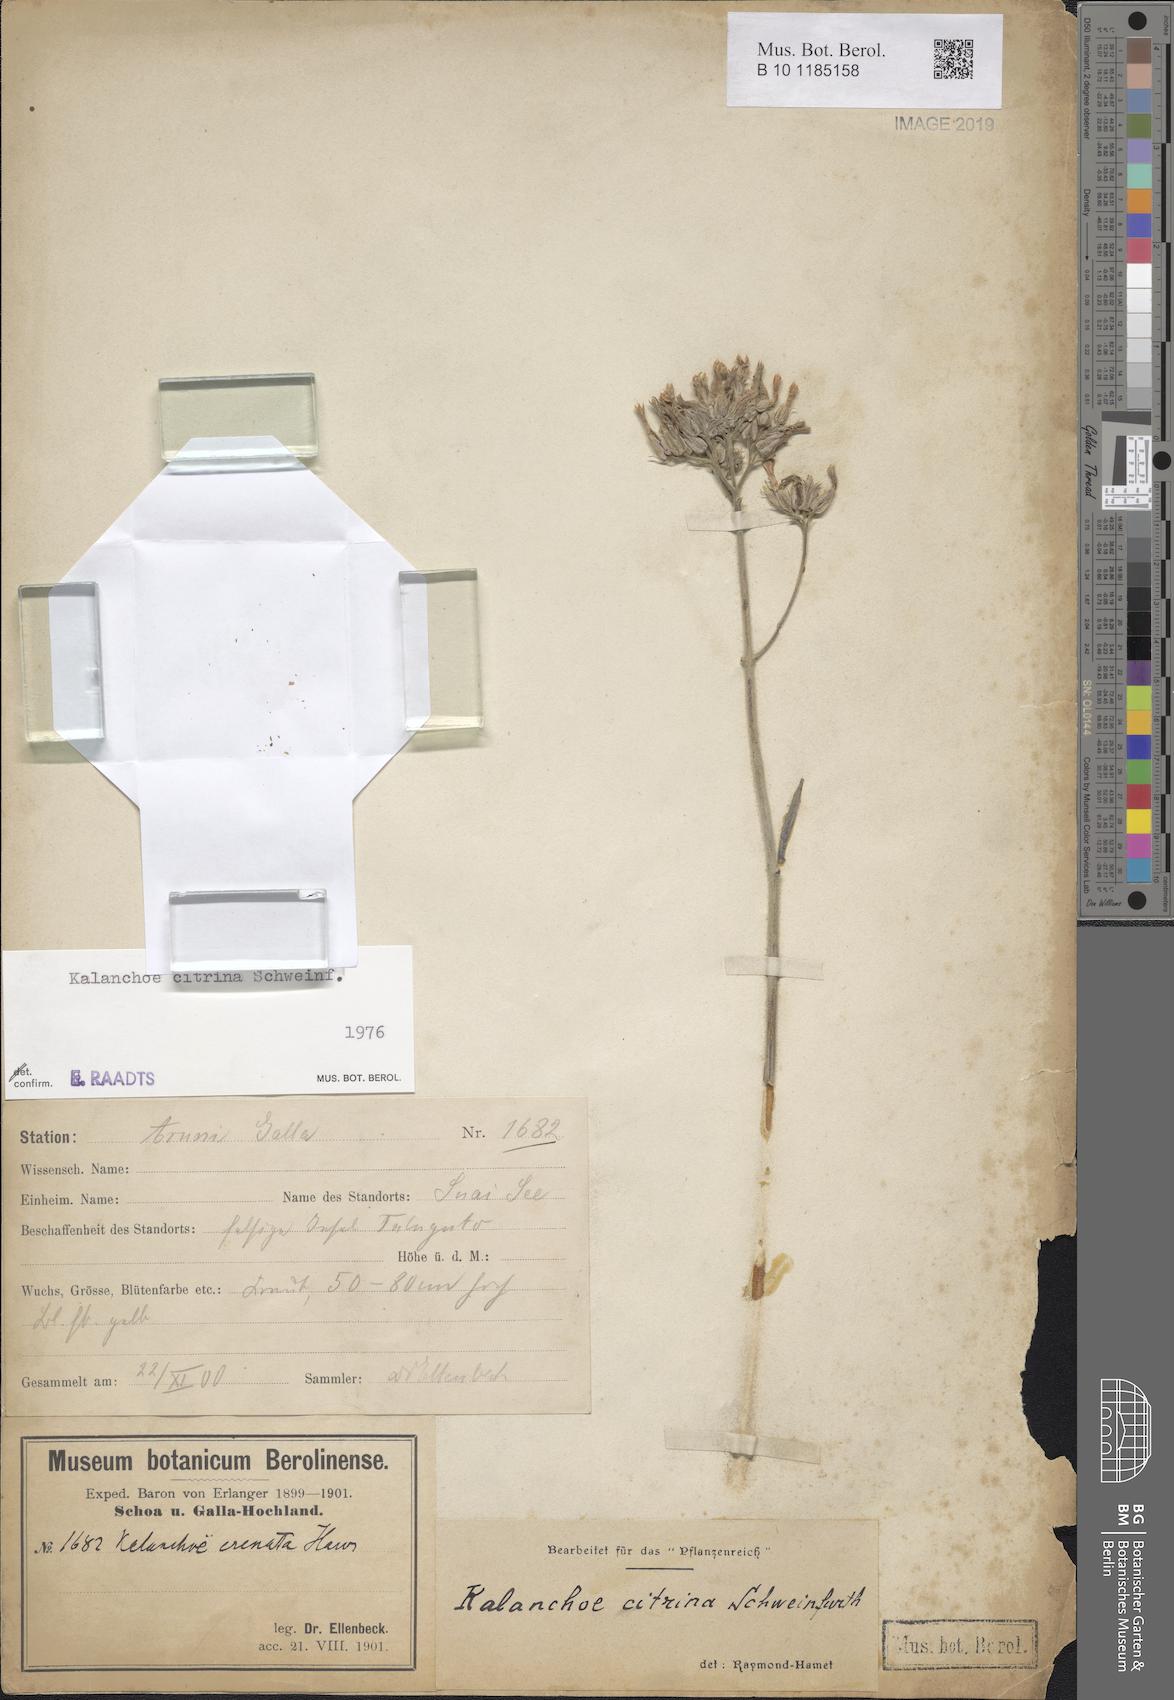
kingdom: Plantae
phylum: Tracheophyta
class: Magnoliopsida
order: Saxifragales
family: Crassulaceae
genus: Kalanchoe
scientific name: Kalanchoe citrina
